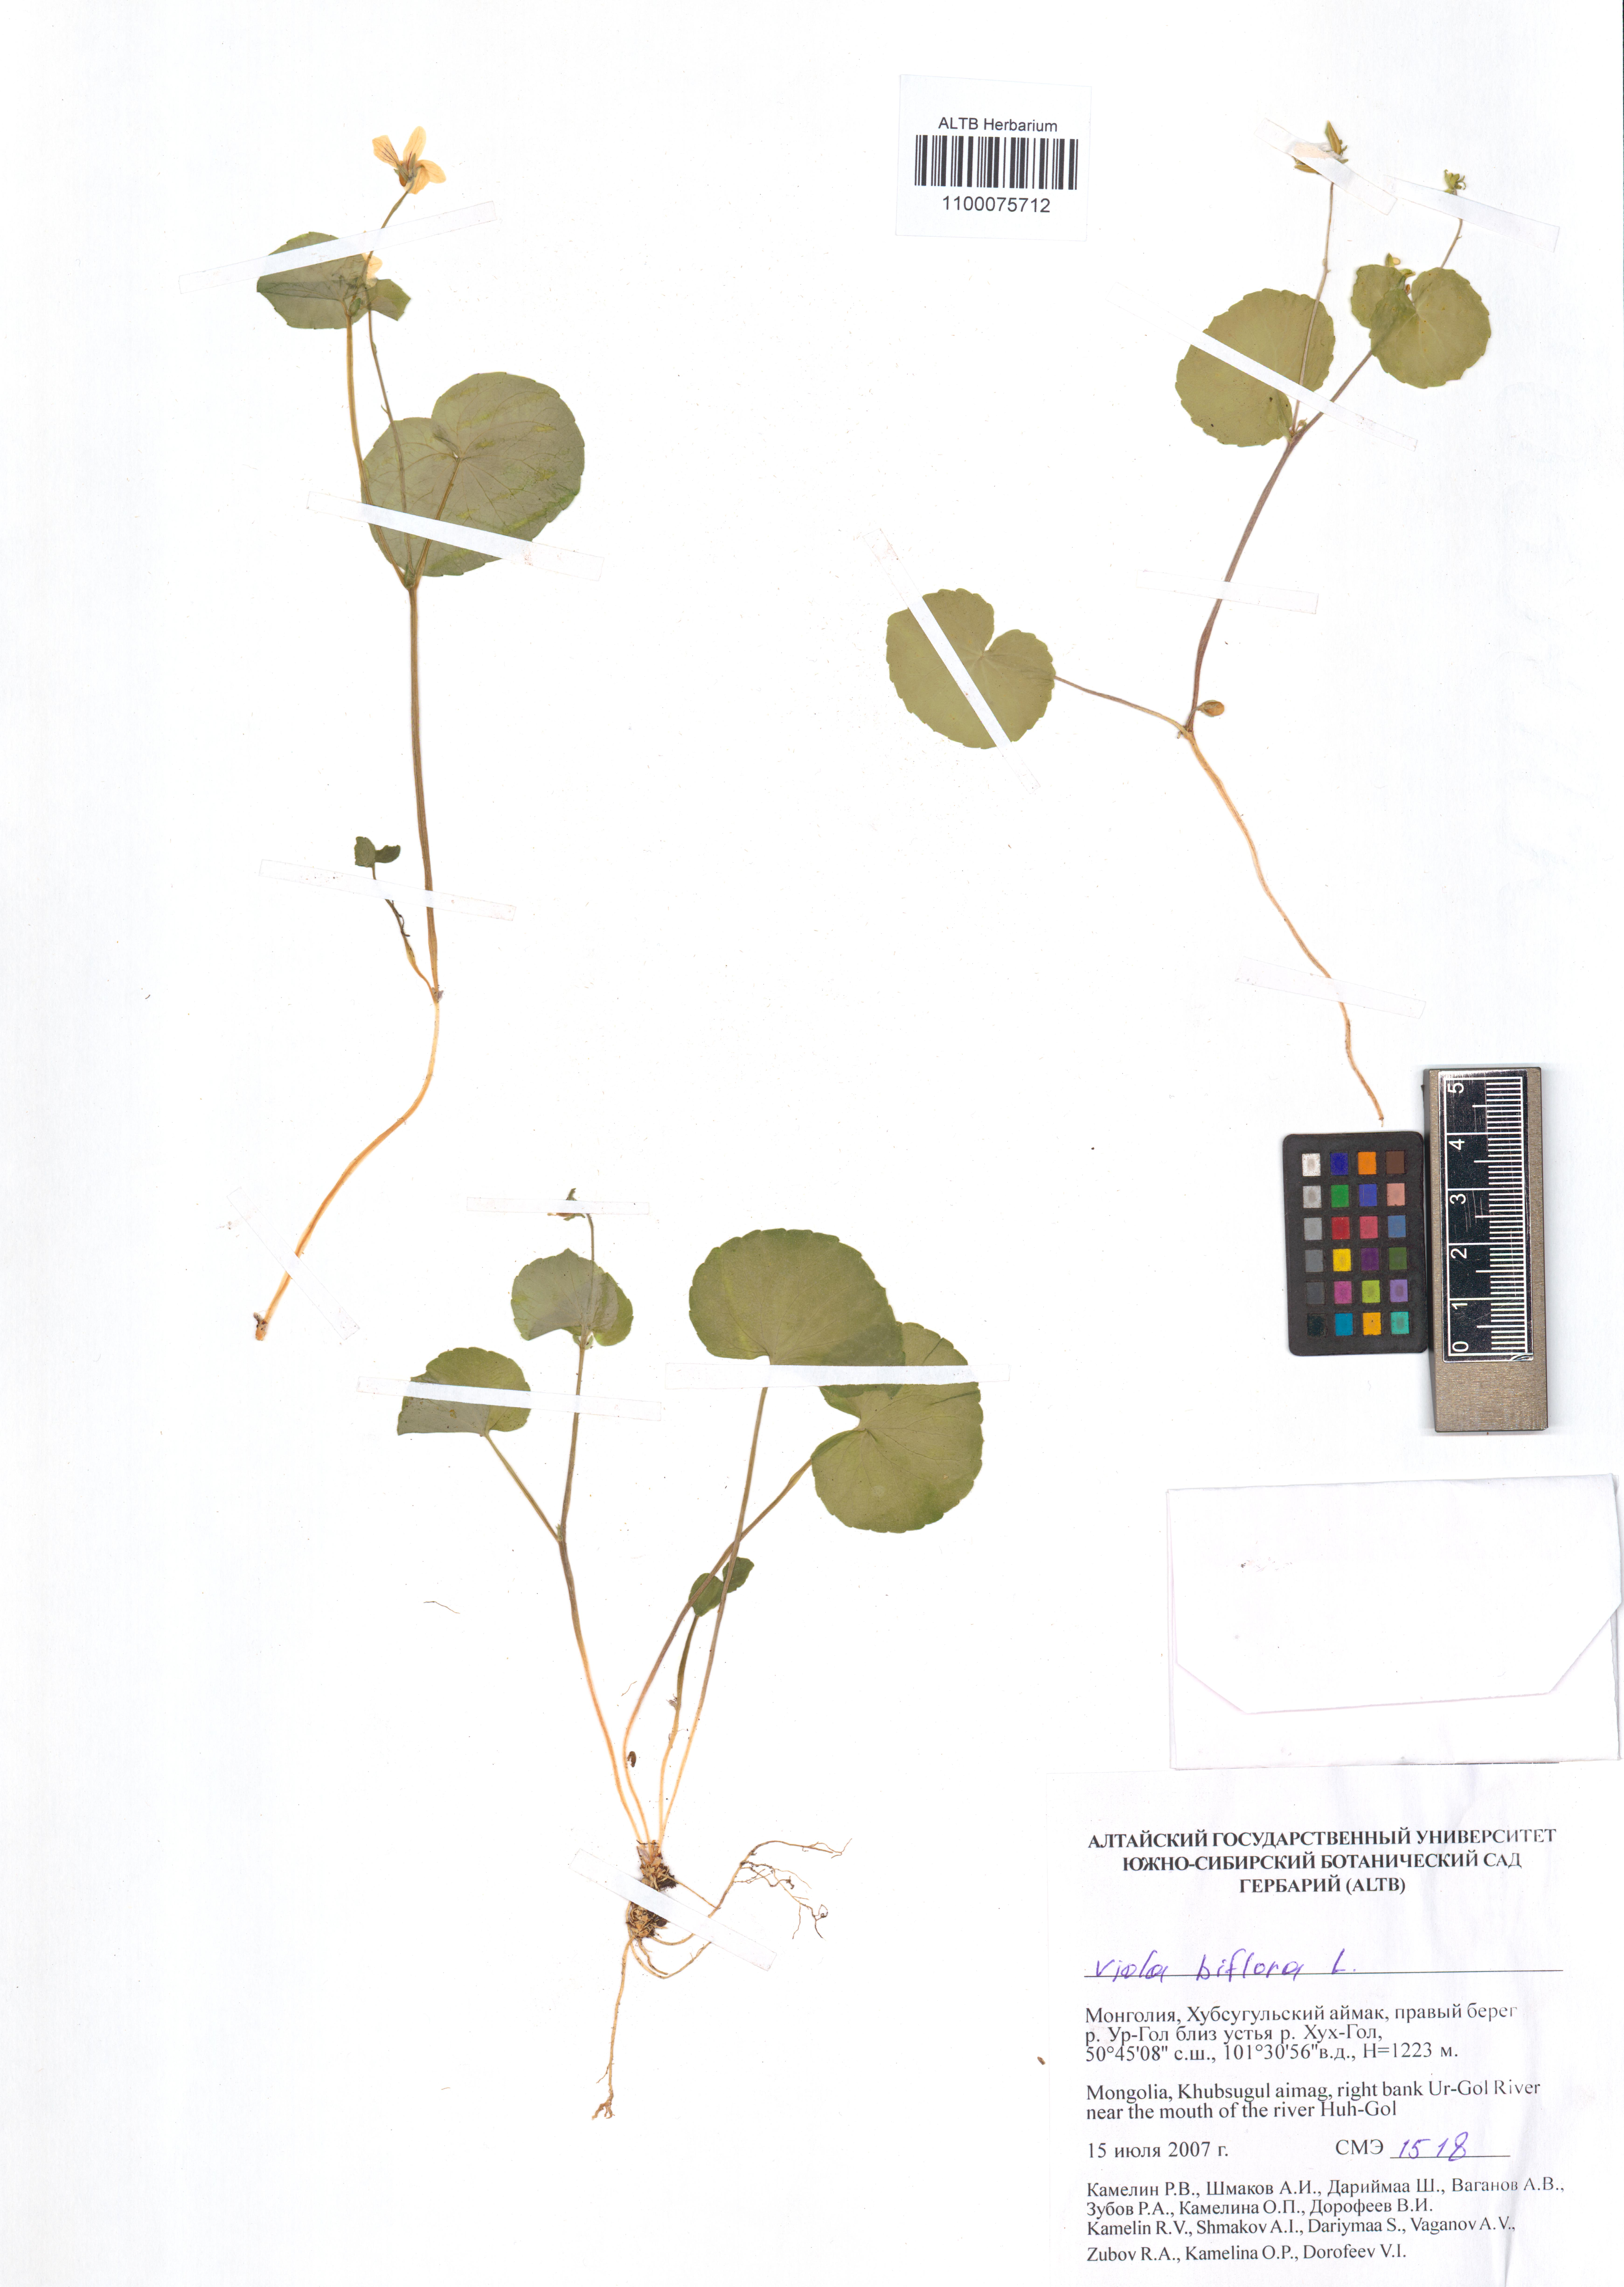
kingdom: Plantae
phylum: Tracheophyta
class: Magnoliopsida
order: Malpighiales
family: Violaceae
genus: Viola
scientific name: Viola biflora
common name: Alpine yellow violet
